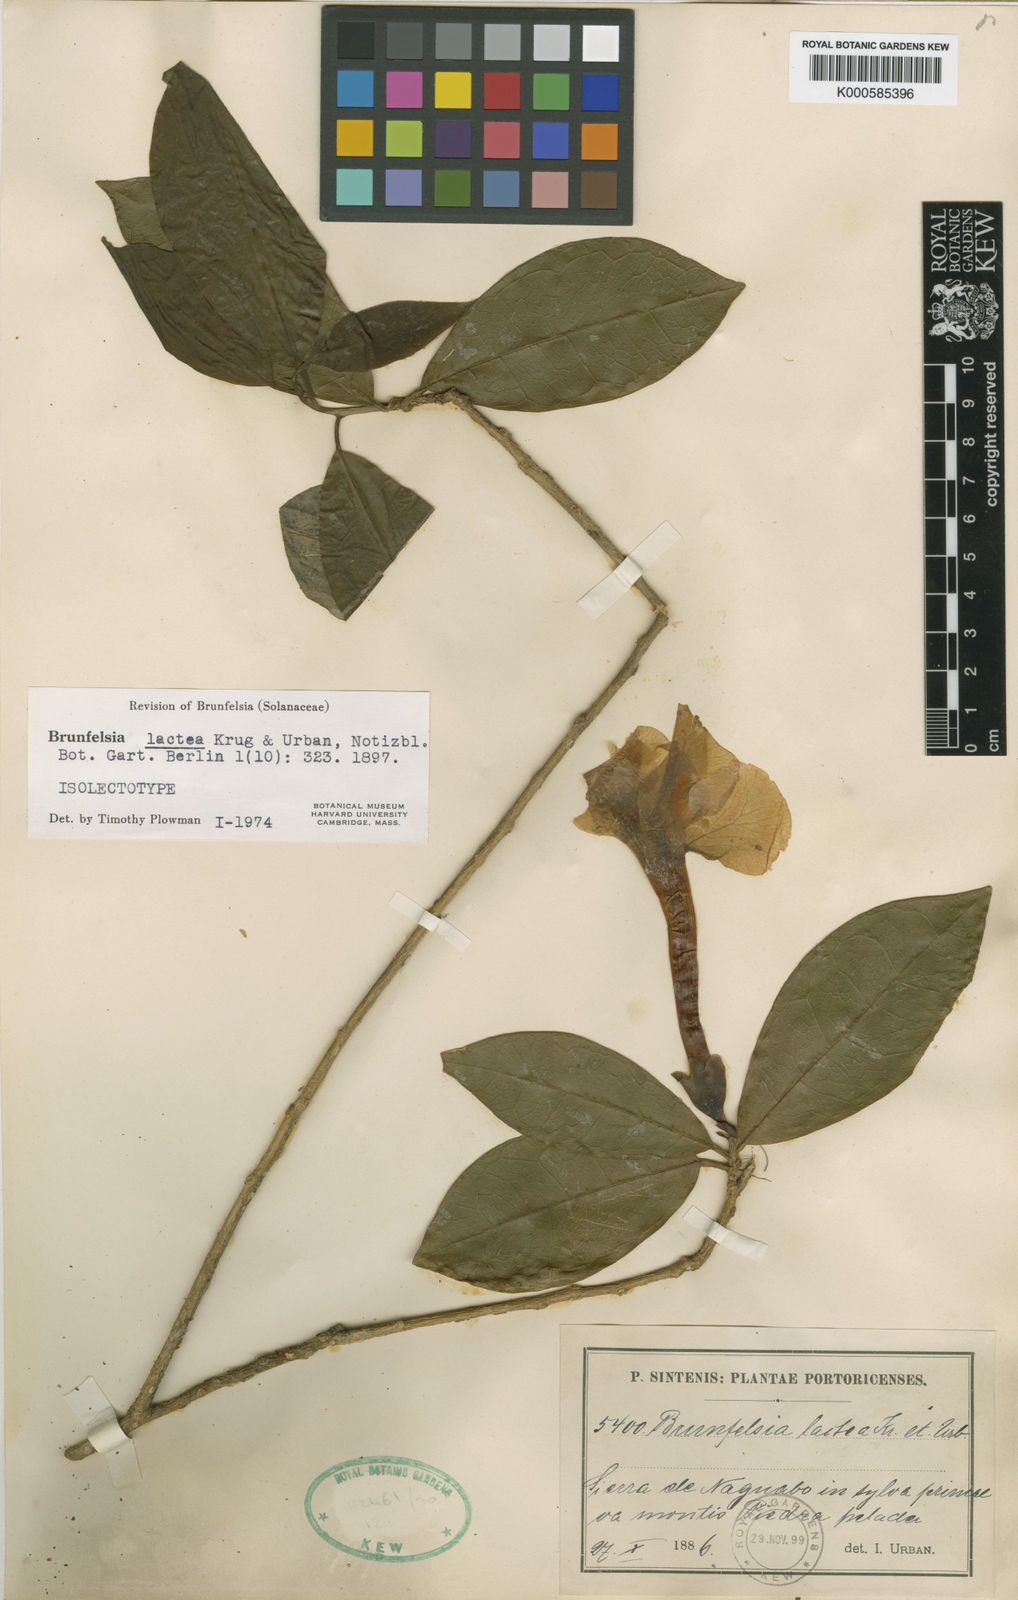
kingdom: Plantae
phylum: Tracheophyta
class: Magnoliopsida
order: Solanales
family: Solanaceae
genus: Brunfelsia
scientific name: Brunfelsia lactea
